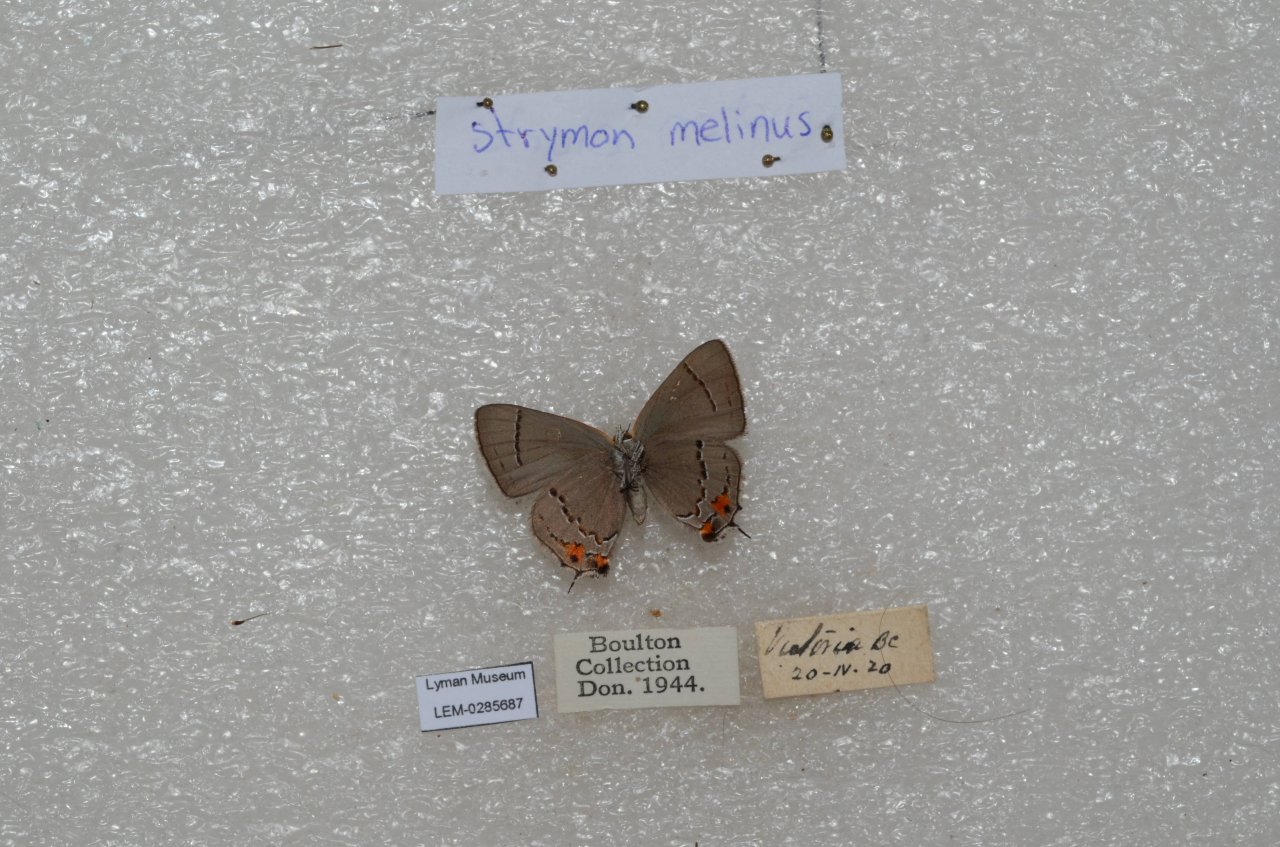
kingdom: Animalia
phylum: Arthropoda
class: Insecta
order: Lepidoptera
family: Lycaenidae
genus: Strymon
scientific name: Strymon melinus
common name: Gray Hairstreak
